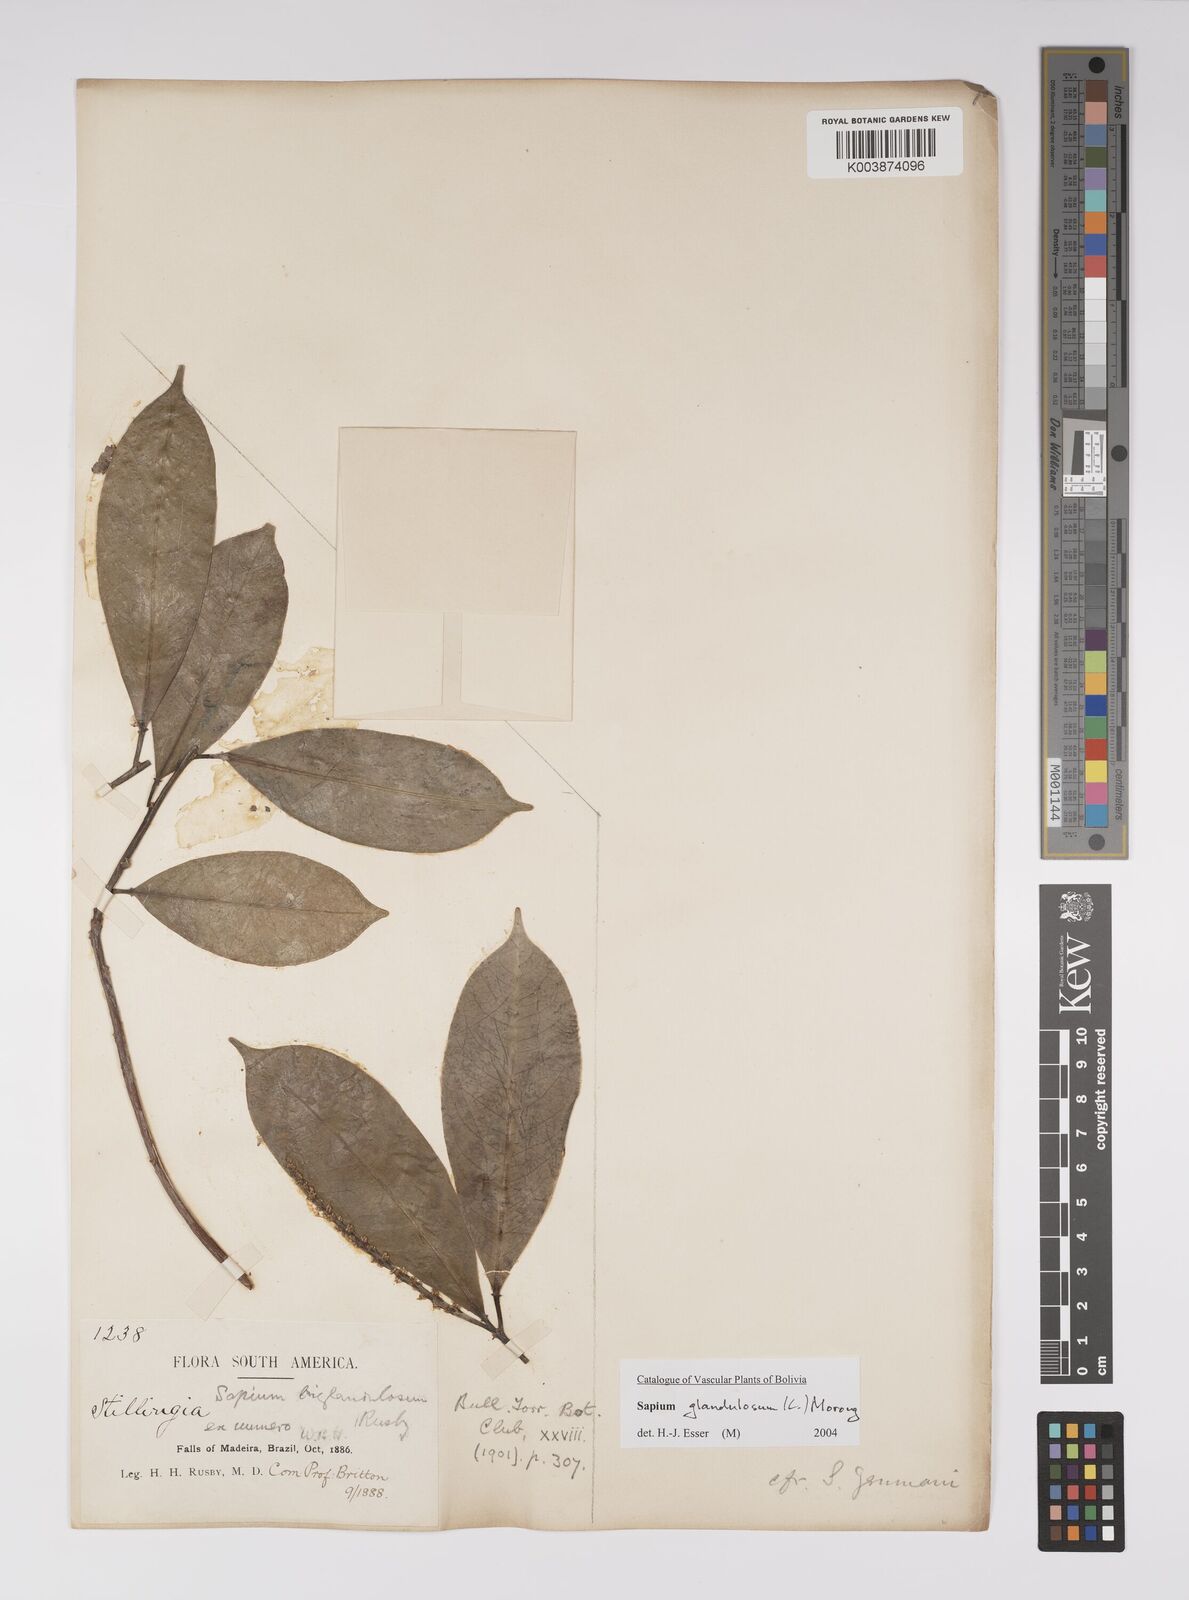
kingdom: Plantae
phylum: Tracheophyta
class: Magnoliopsida
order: Malpighiales
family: Euphorbiaceae
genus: Sapium
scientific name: Sapium glandulosum
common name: Milktree
